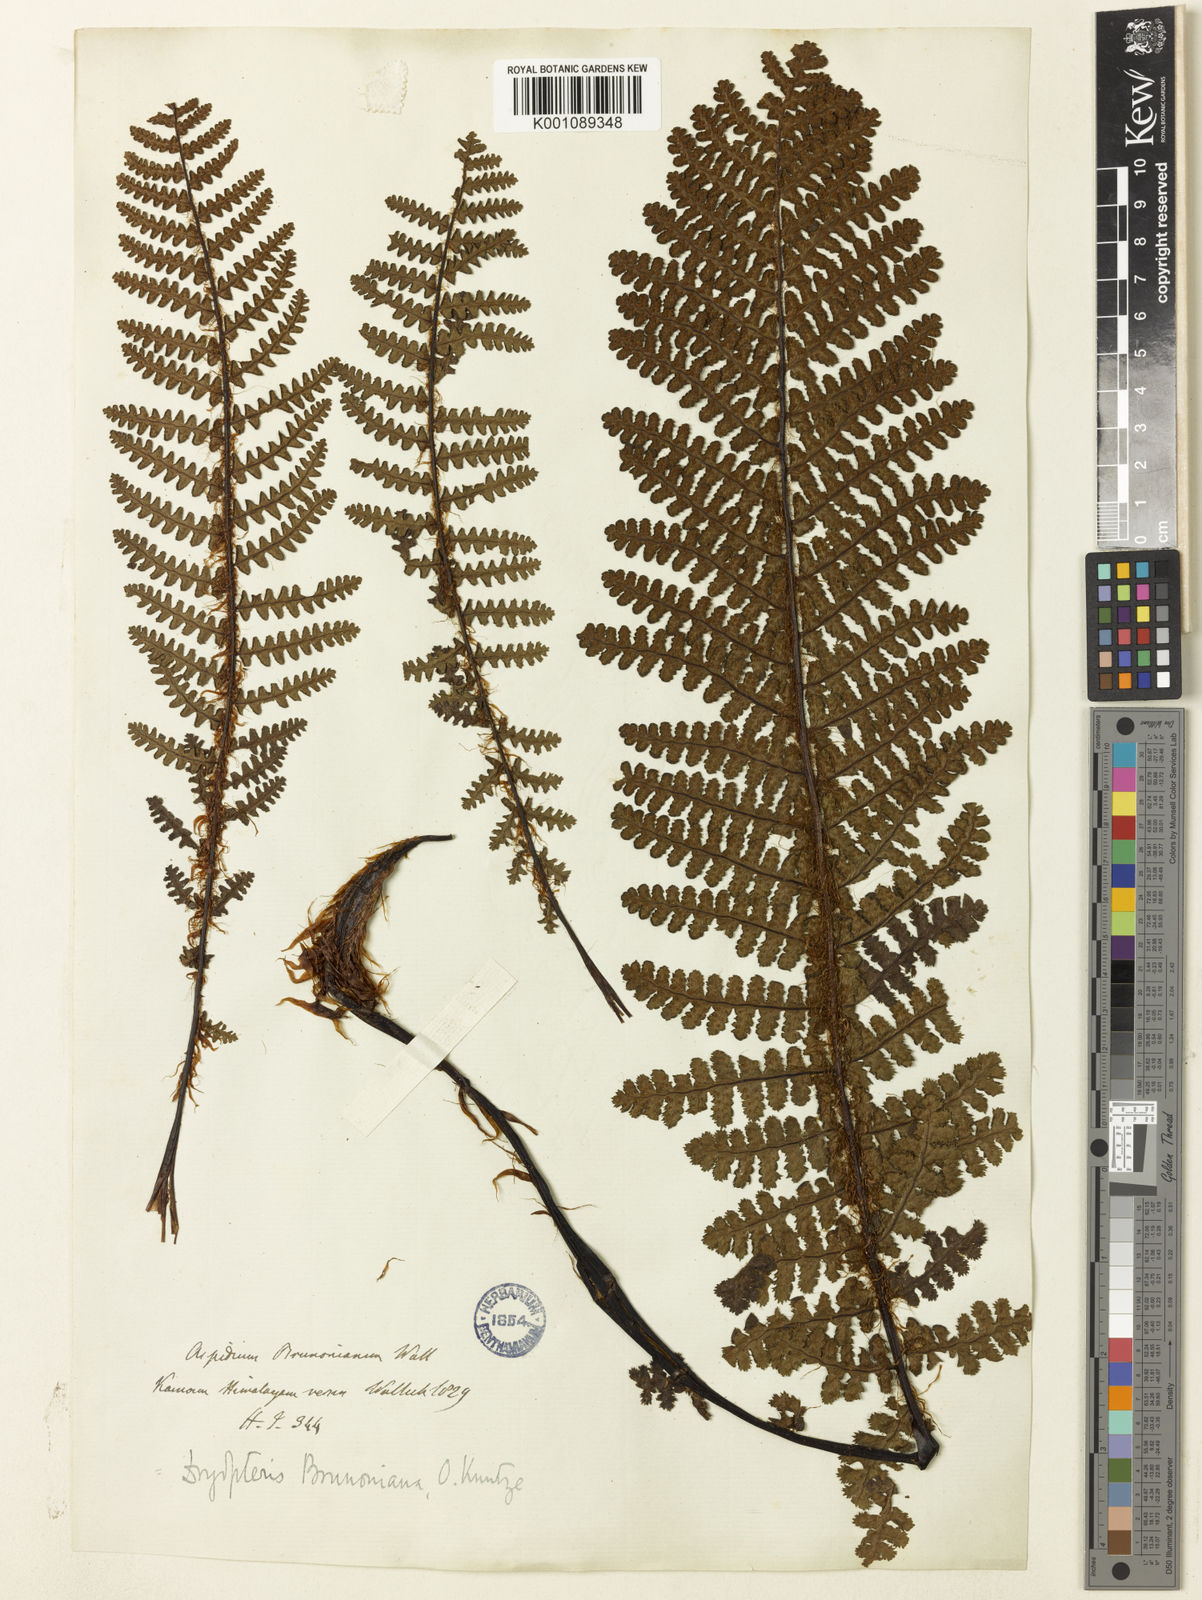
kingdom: Plantae
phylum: Tracheophyta
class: Polypodiopsida
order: Polypodiales
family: Athyriaceae
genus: Athyrium
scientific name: Athyrium wallichianum
